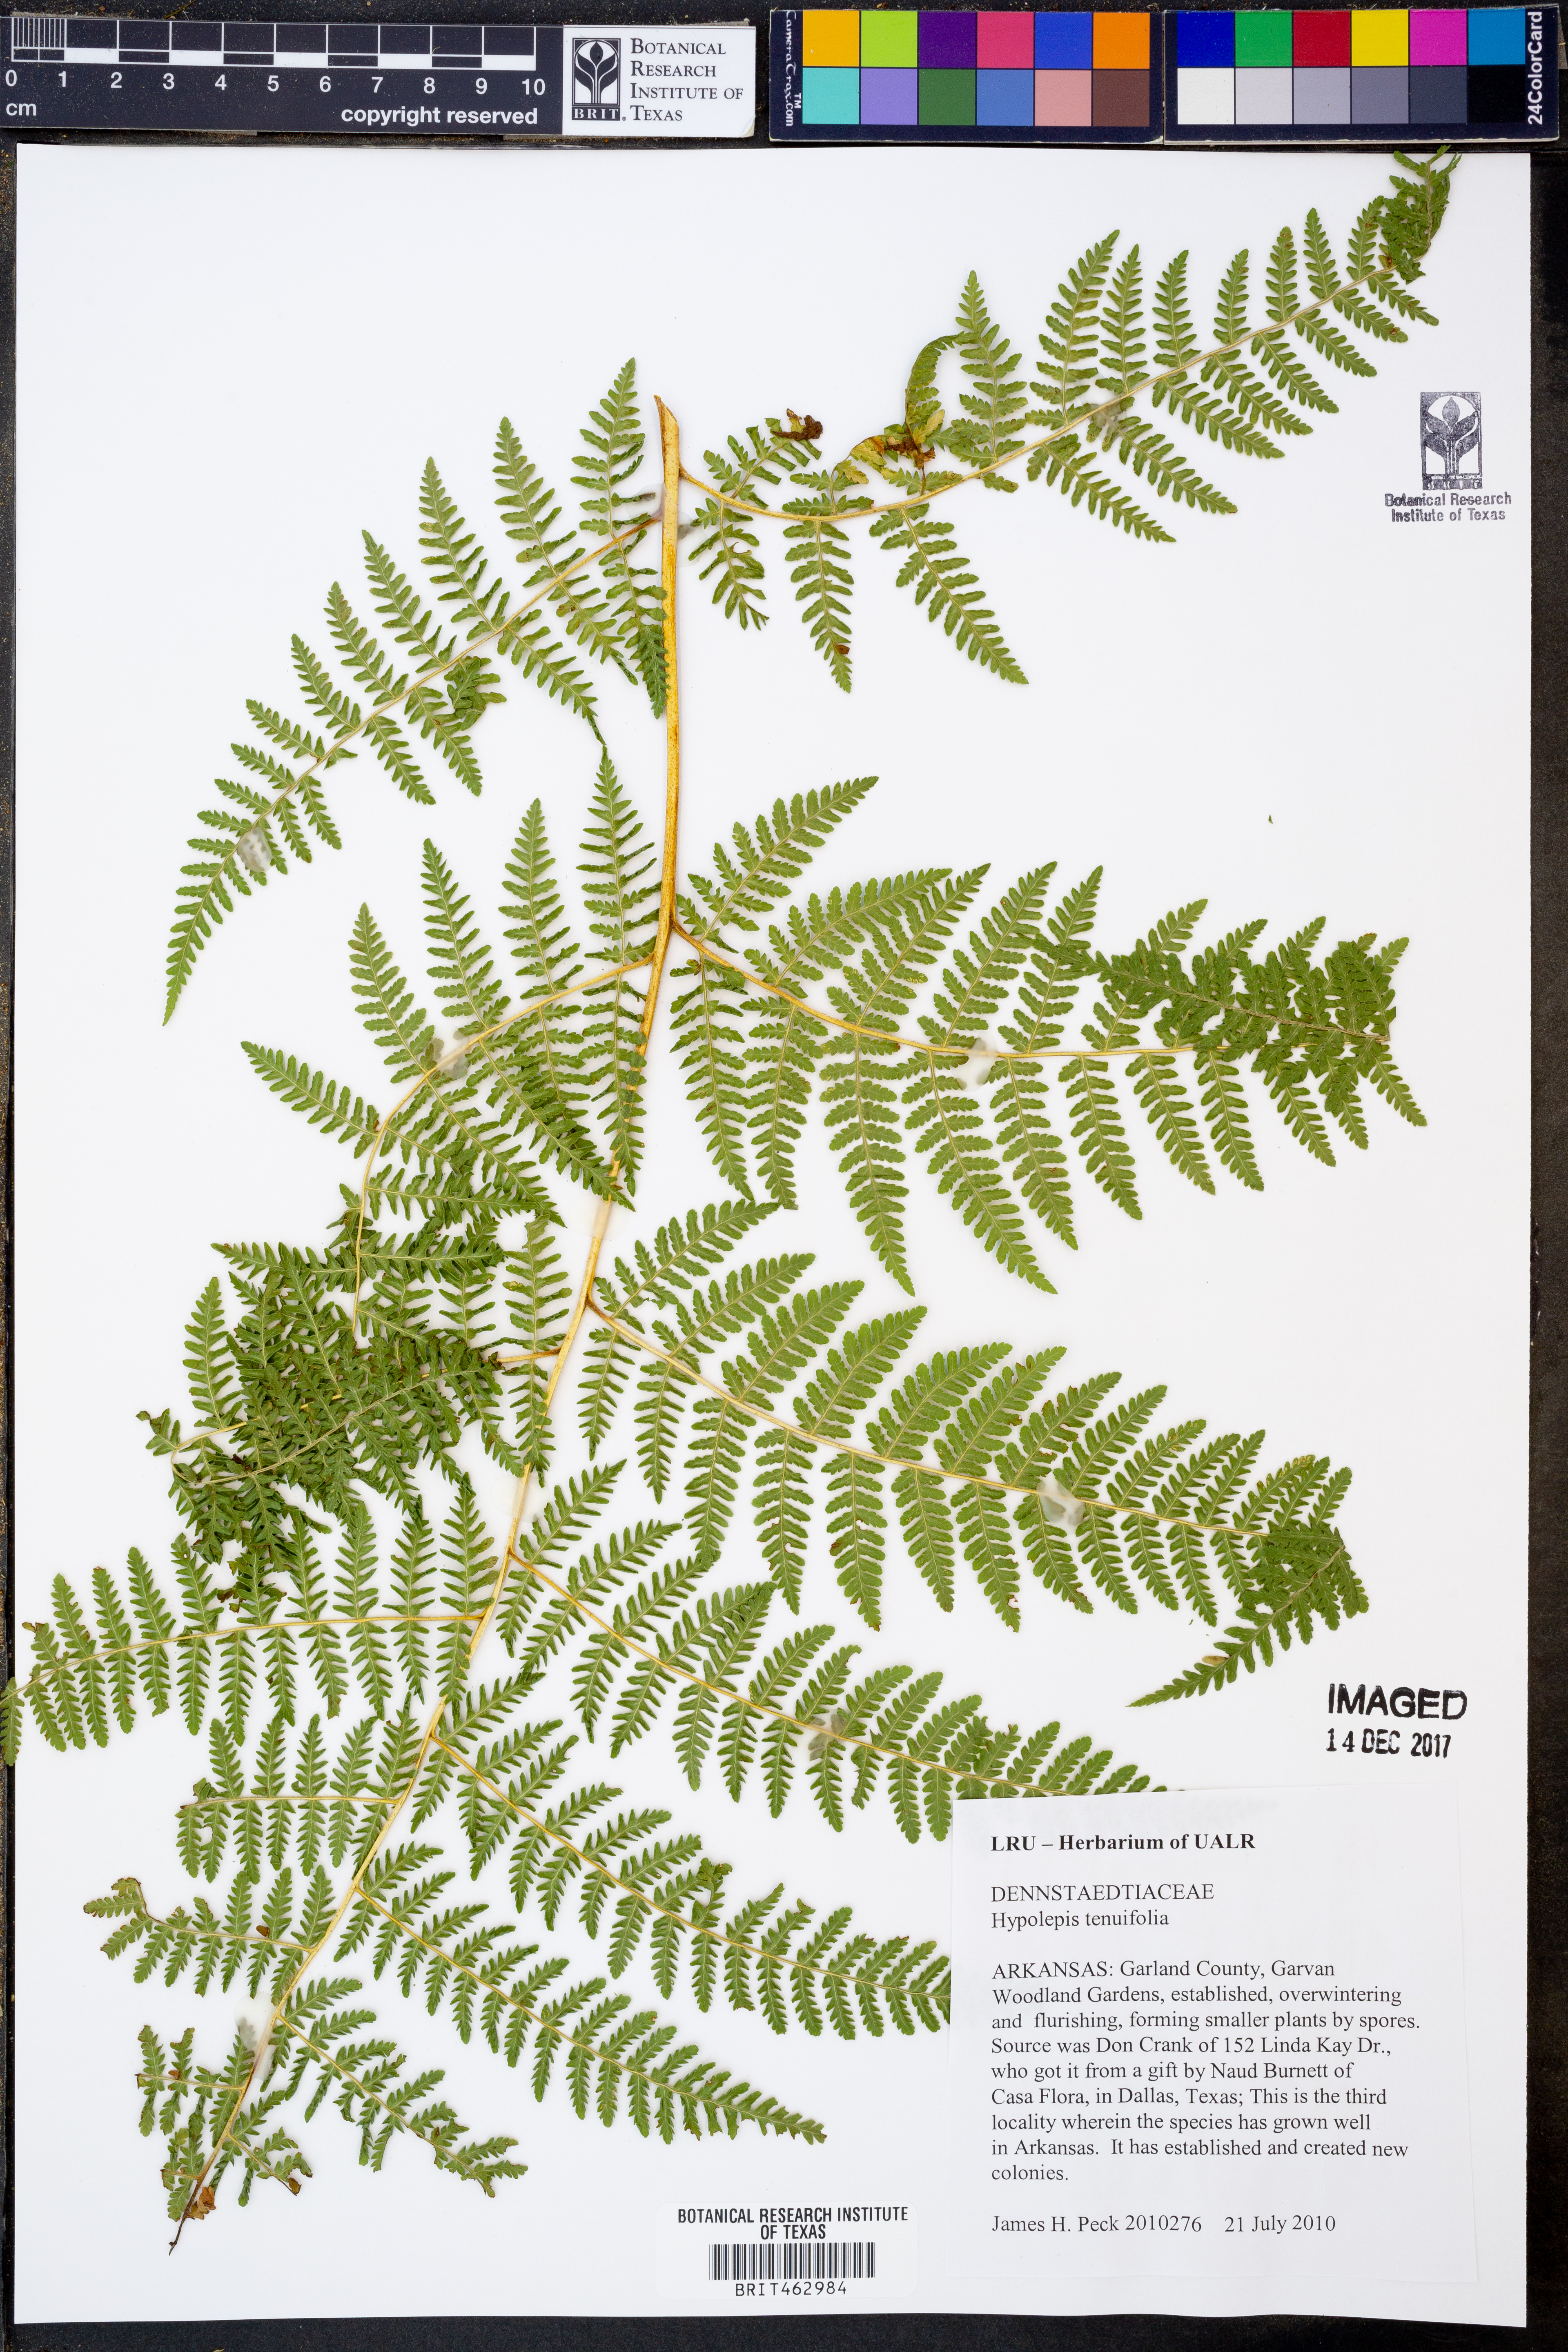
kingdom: Plantae
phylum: Tracheophyta
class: Polypodiopsida
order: Polypodiales
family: Dennstaedtiaceae
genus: Hypolepis
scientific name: Hypolepis tenuifolia
